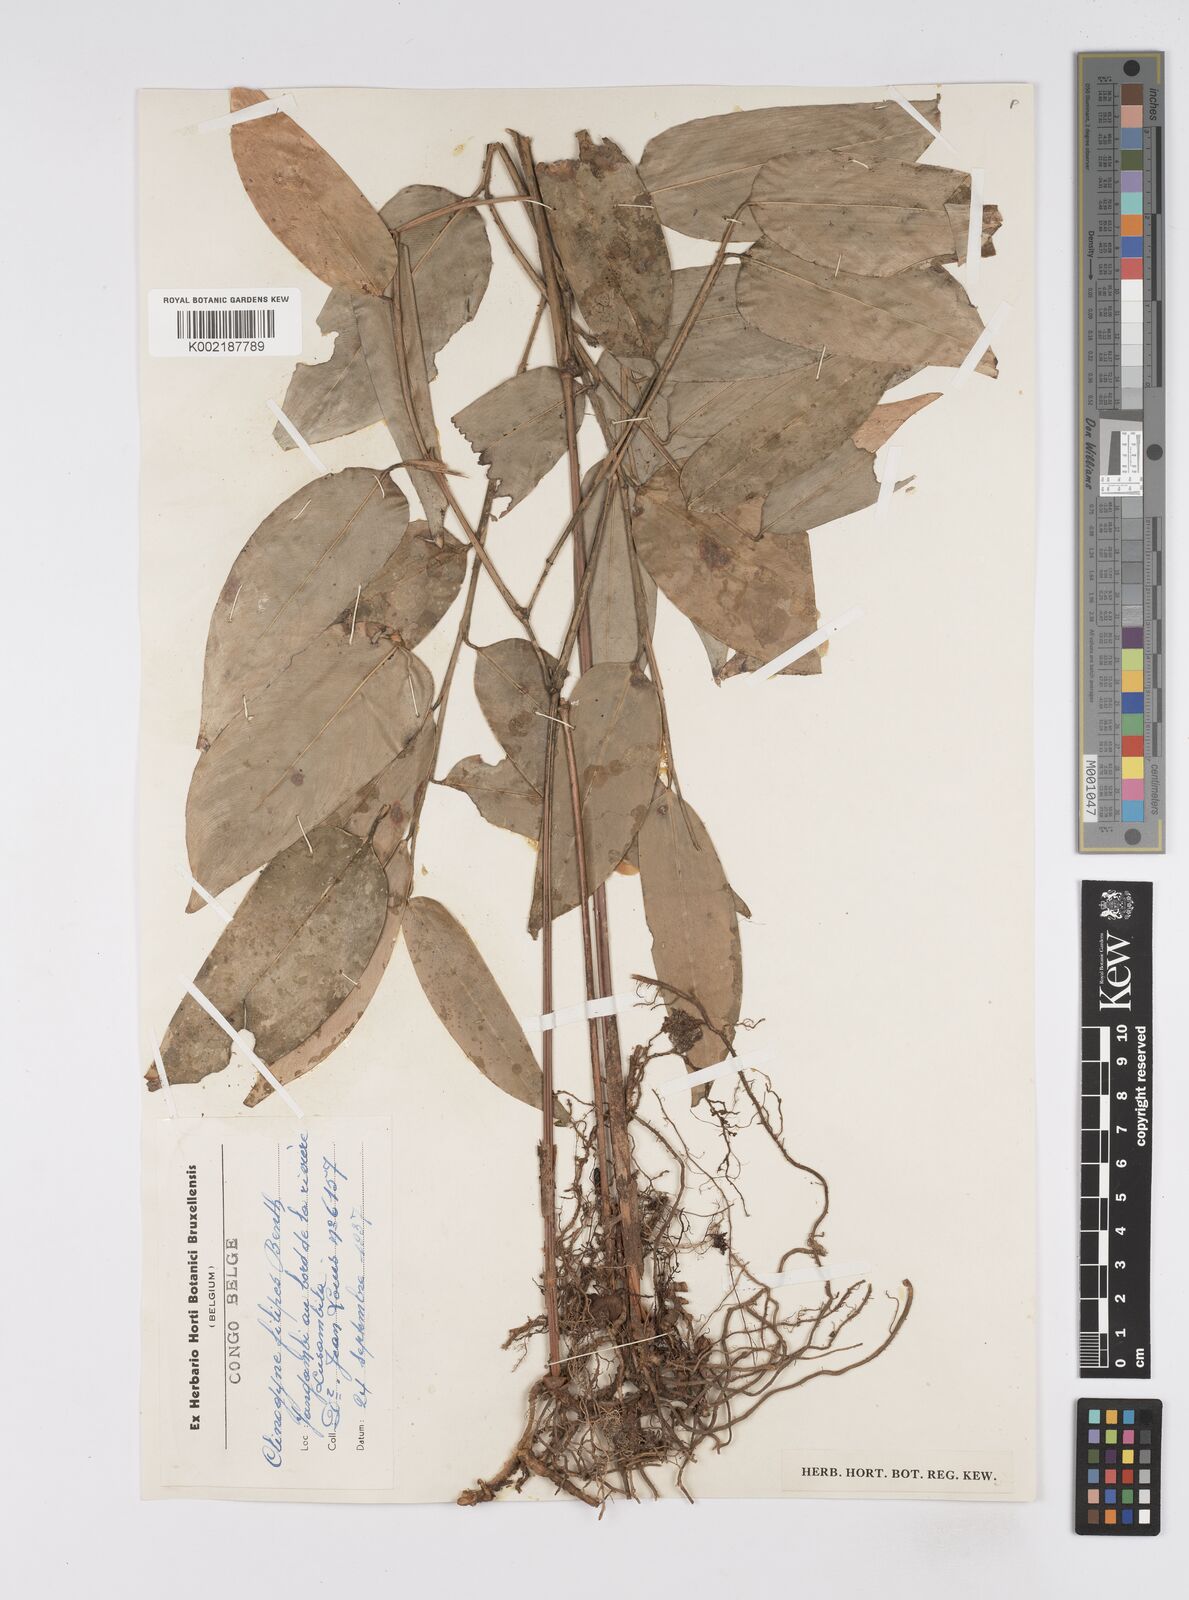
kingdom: Plantae
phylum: Tracheophyta
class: Liliopsida
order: Zingiberales
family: Marantaceae
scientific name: Marantaceae
